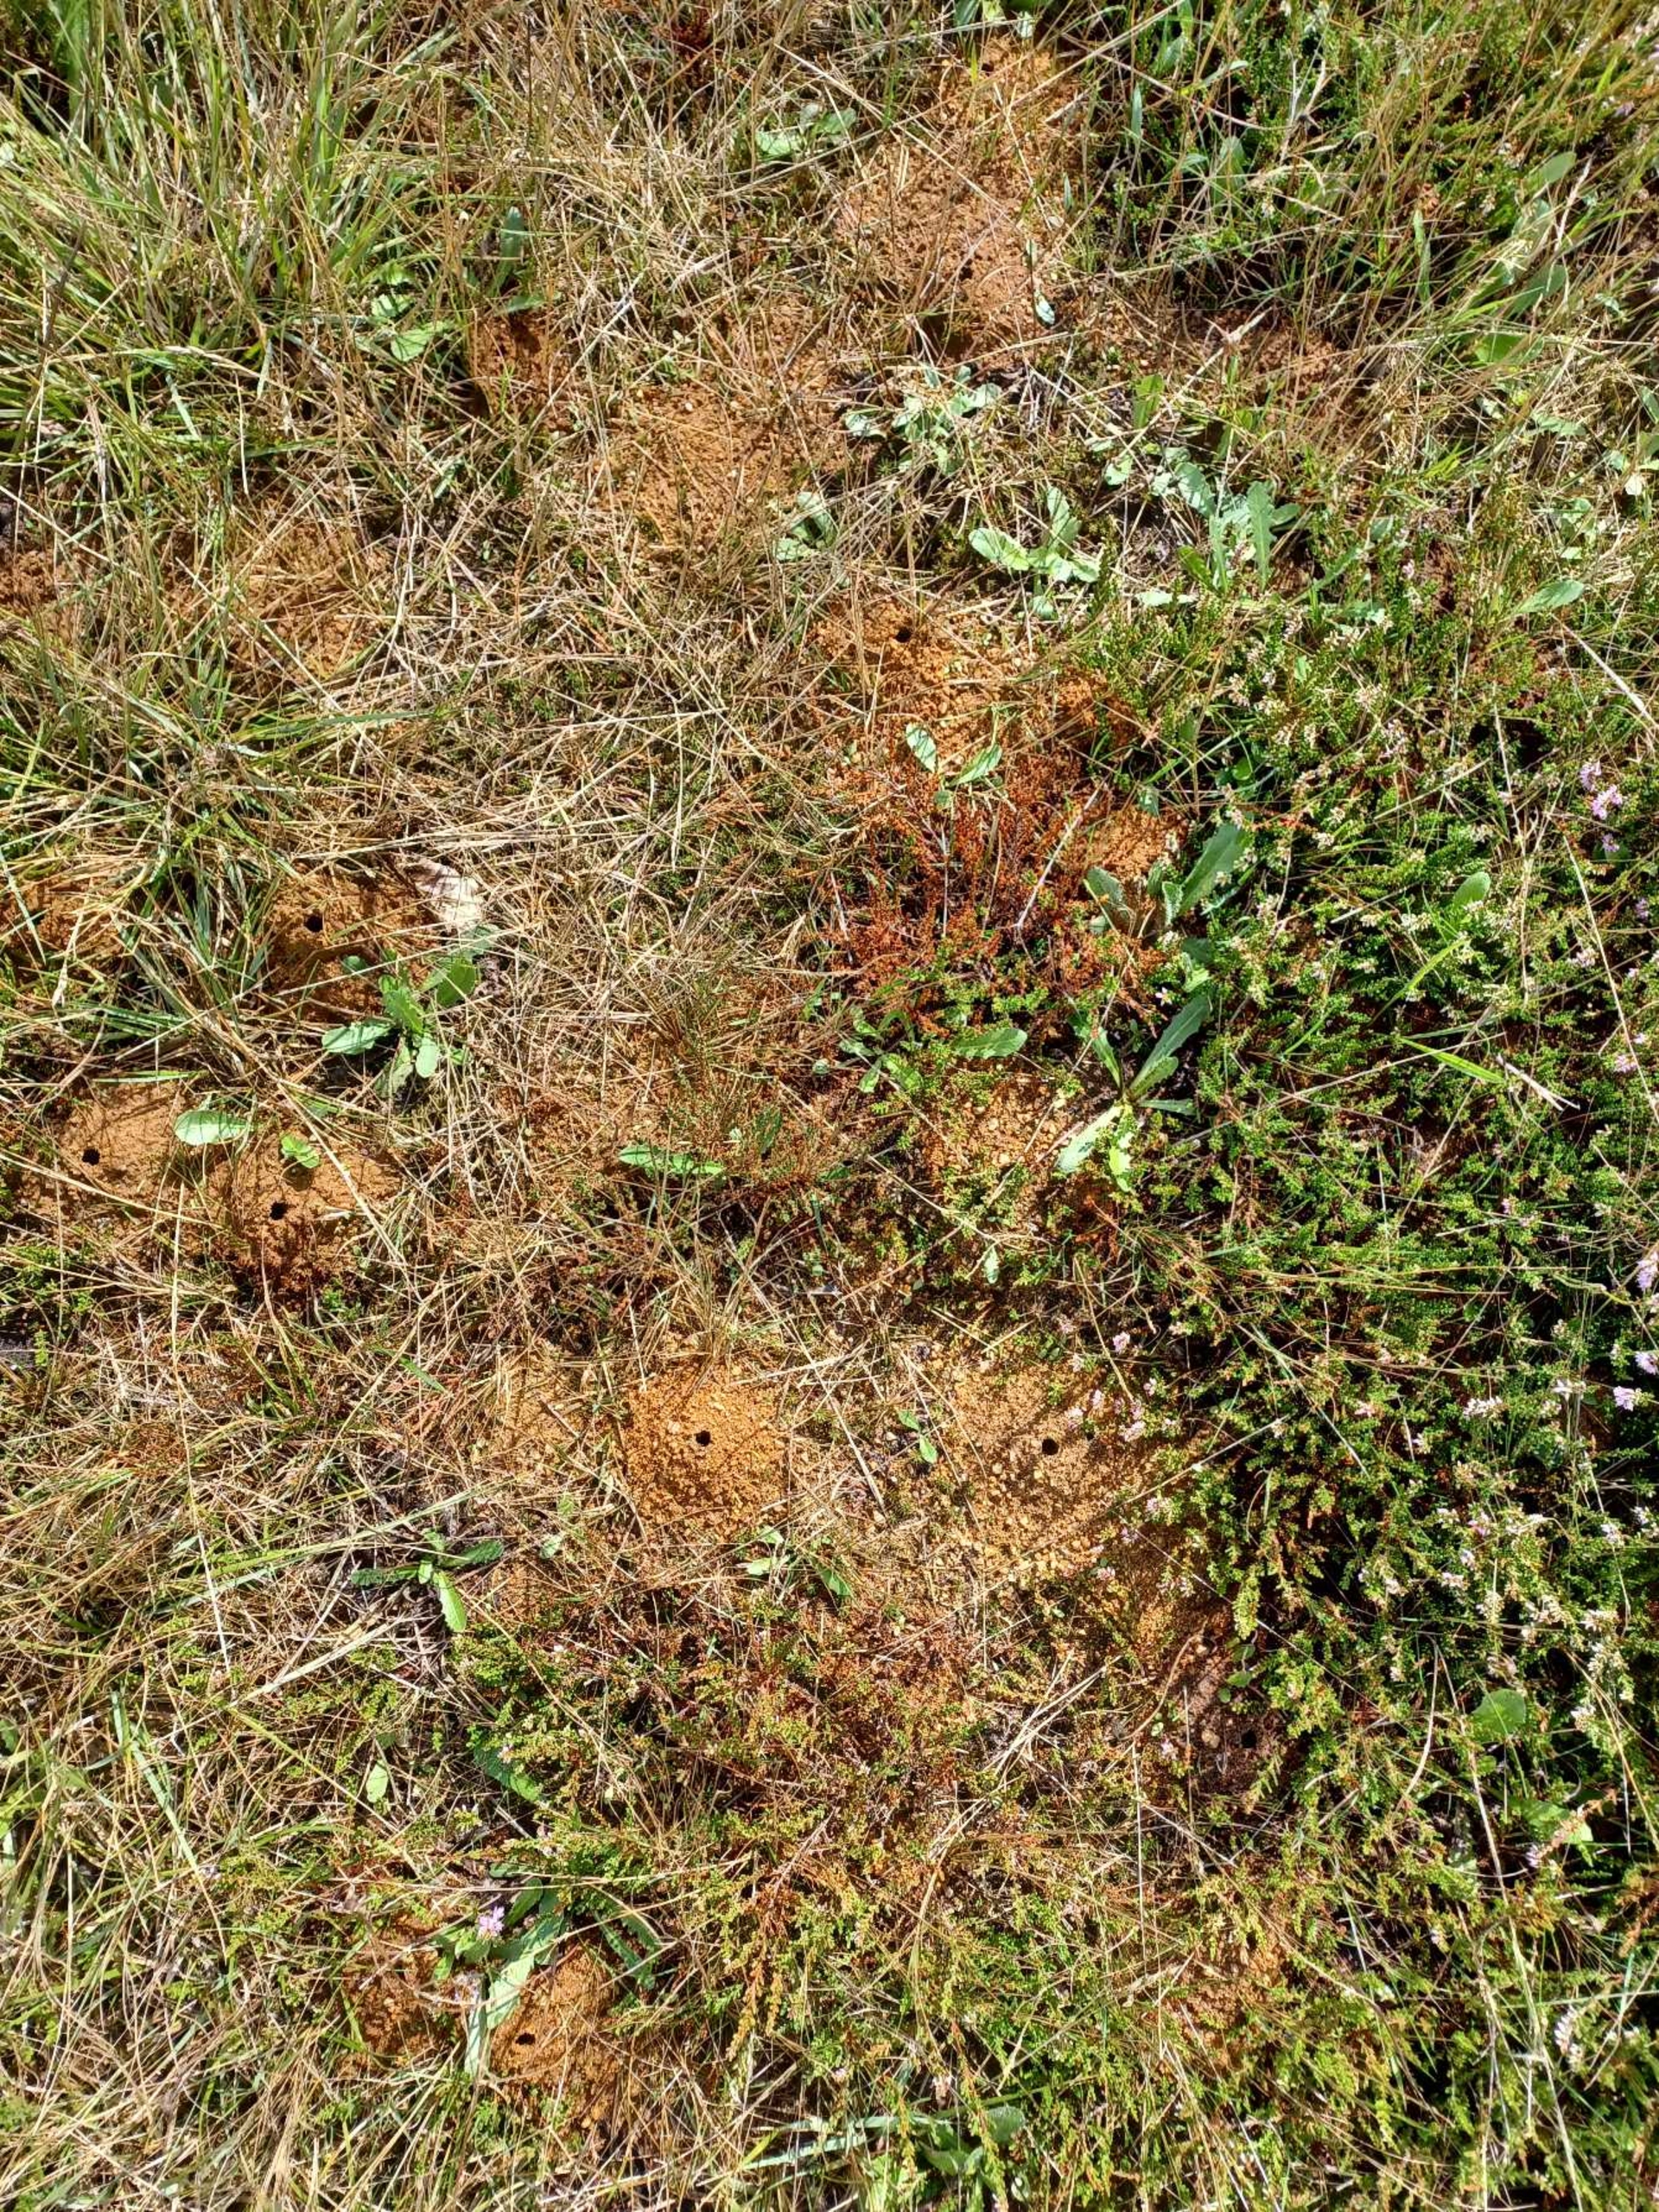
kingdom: Animalia
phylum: Arthropoda
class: Insecta
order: Hymenoptera
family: Melittidae
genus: Dasypoda
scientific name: Dasypoda hirtipes
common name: Pragtbuksebi
